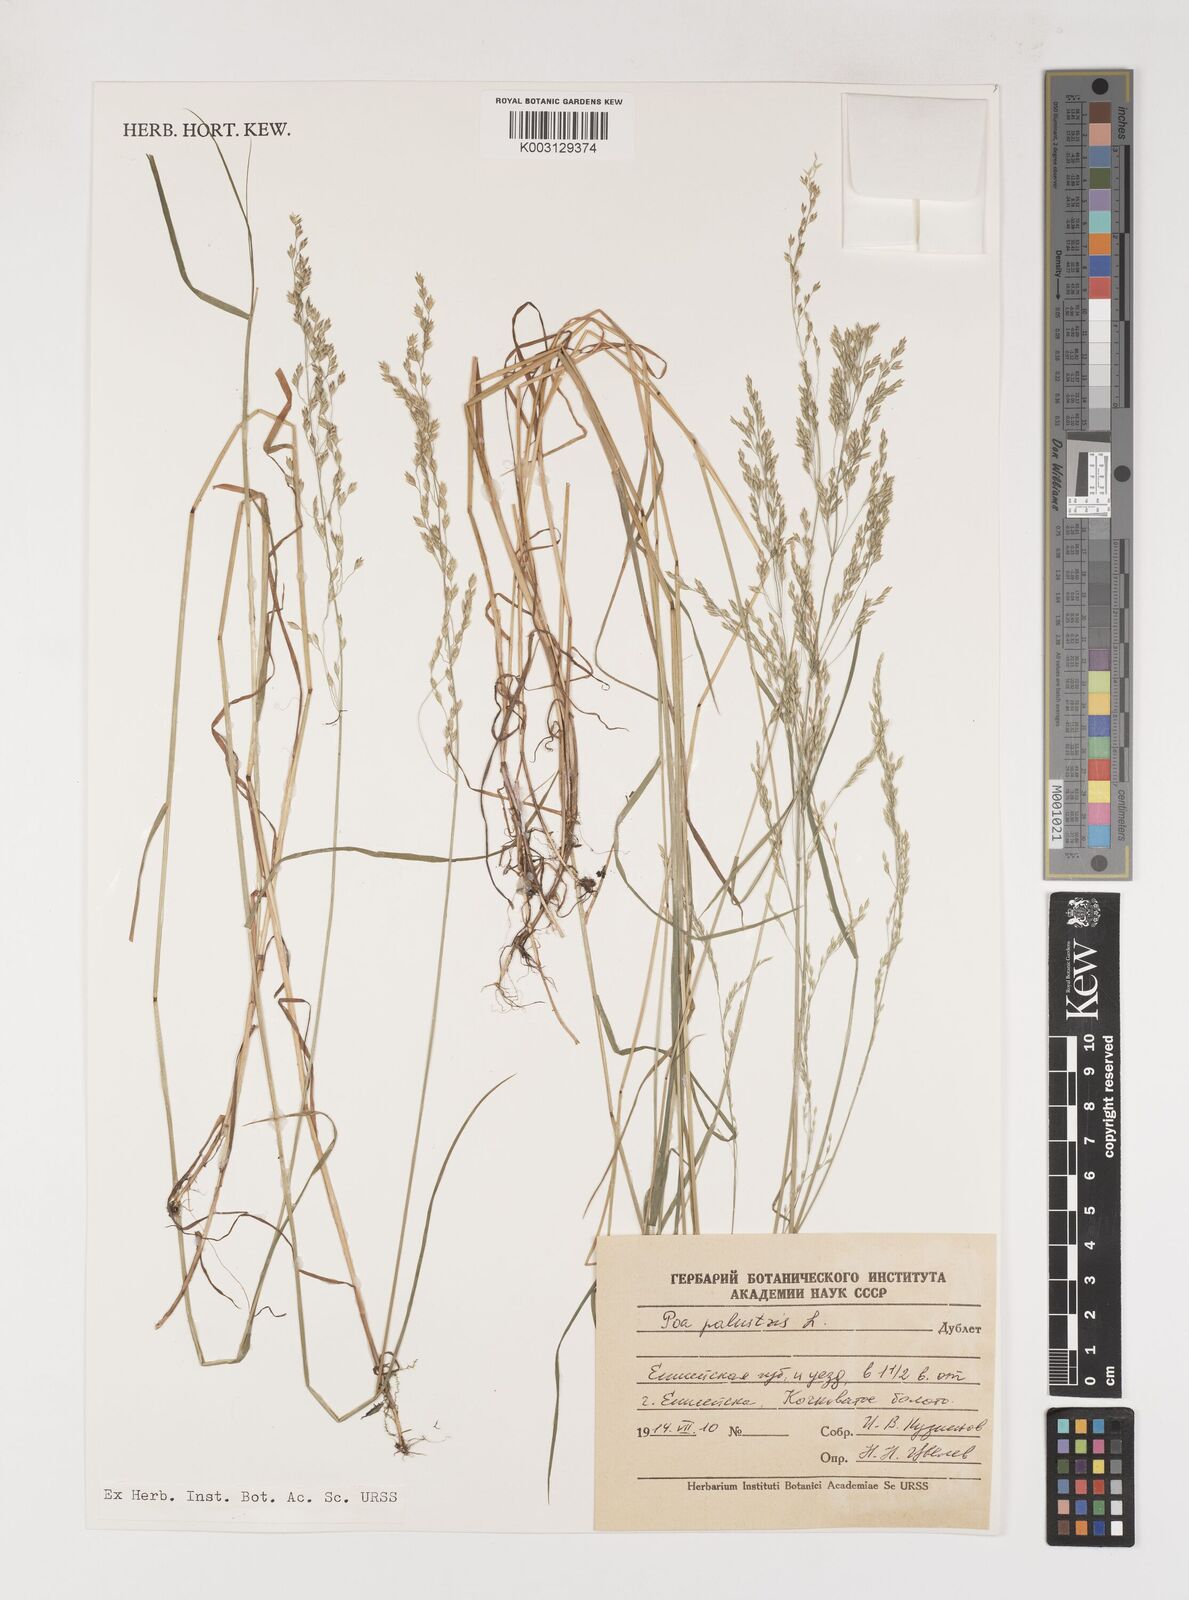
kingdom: Plantae
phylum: Tracheophyta
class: Liliopsida
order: Poales
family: Poaceae
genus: Poa
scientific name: Poa palustris
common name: Swamp meadow-grass
